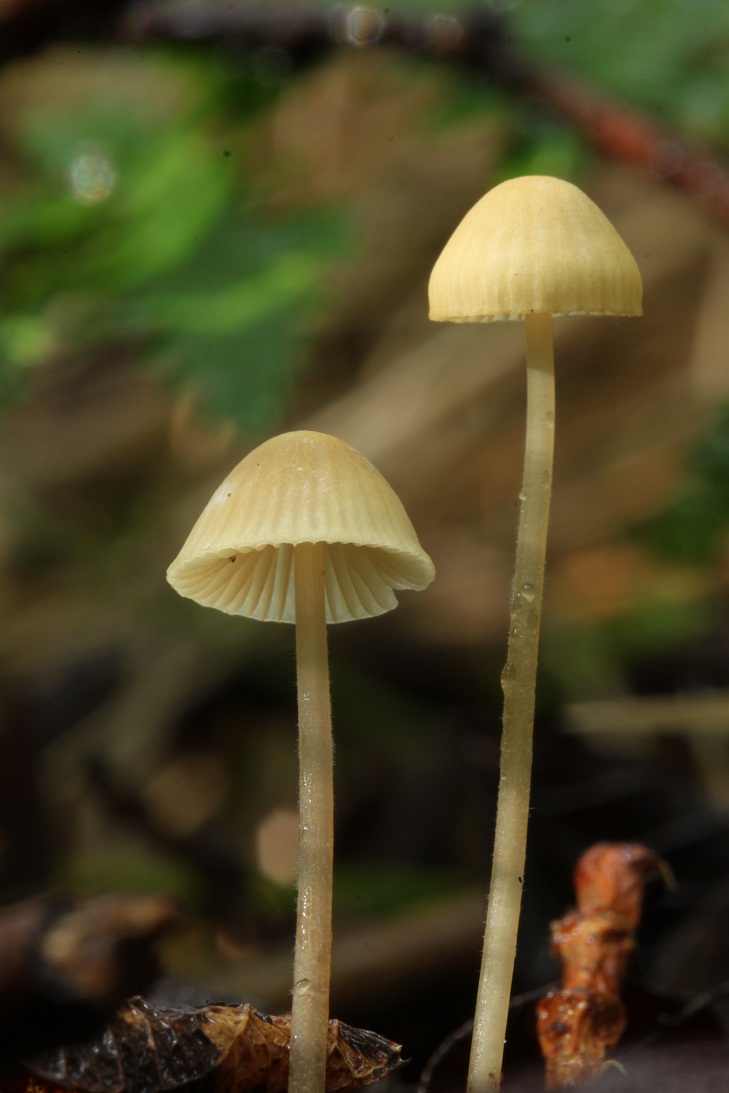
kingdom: Fungi
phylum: Basidiomycota
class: Agaricomycetes
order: Agaricales
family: Mycenaceae
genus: Mycena
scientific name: Mycena citrinomarginata
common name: gulægget huesvamp
